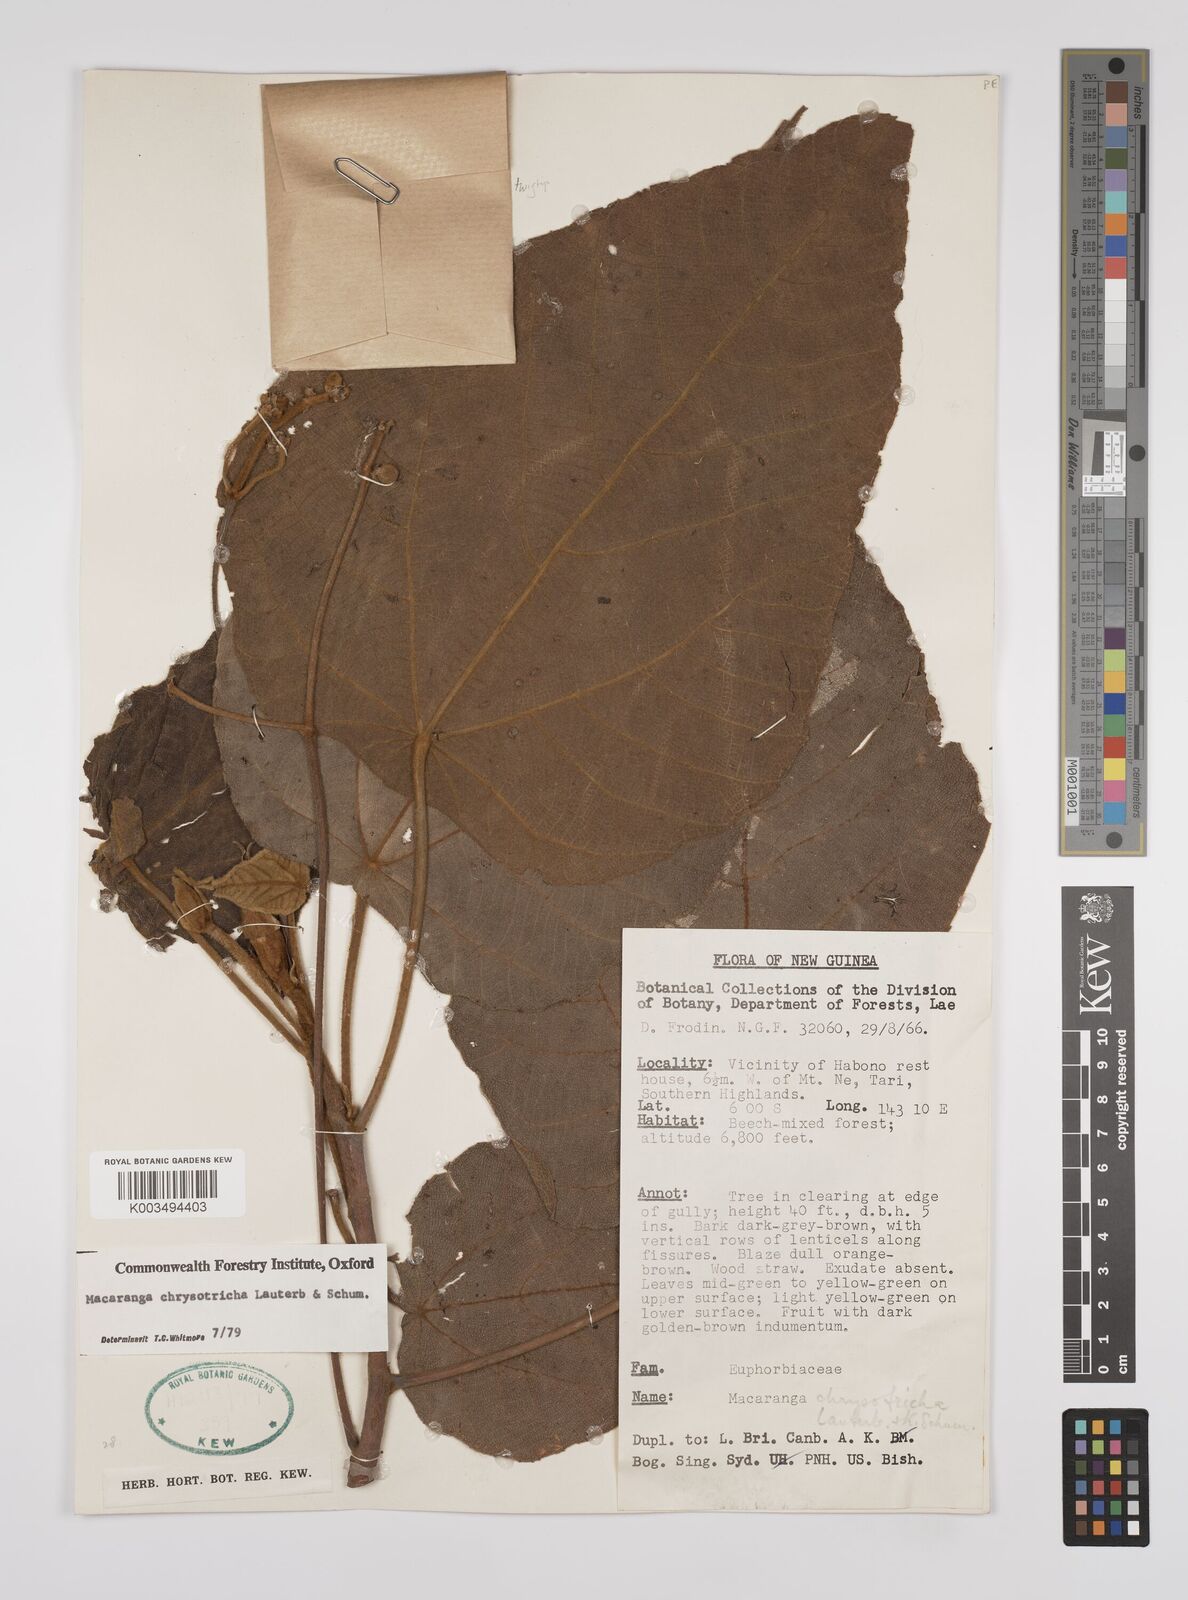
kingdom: Plantae
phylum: Tracheophyta
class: Magnoliopsida
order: Malpighiales
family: Euphorbiaceae
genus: Macaranga
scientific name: Macaranga chrysotricha
